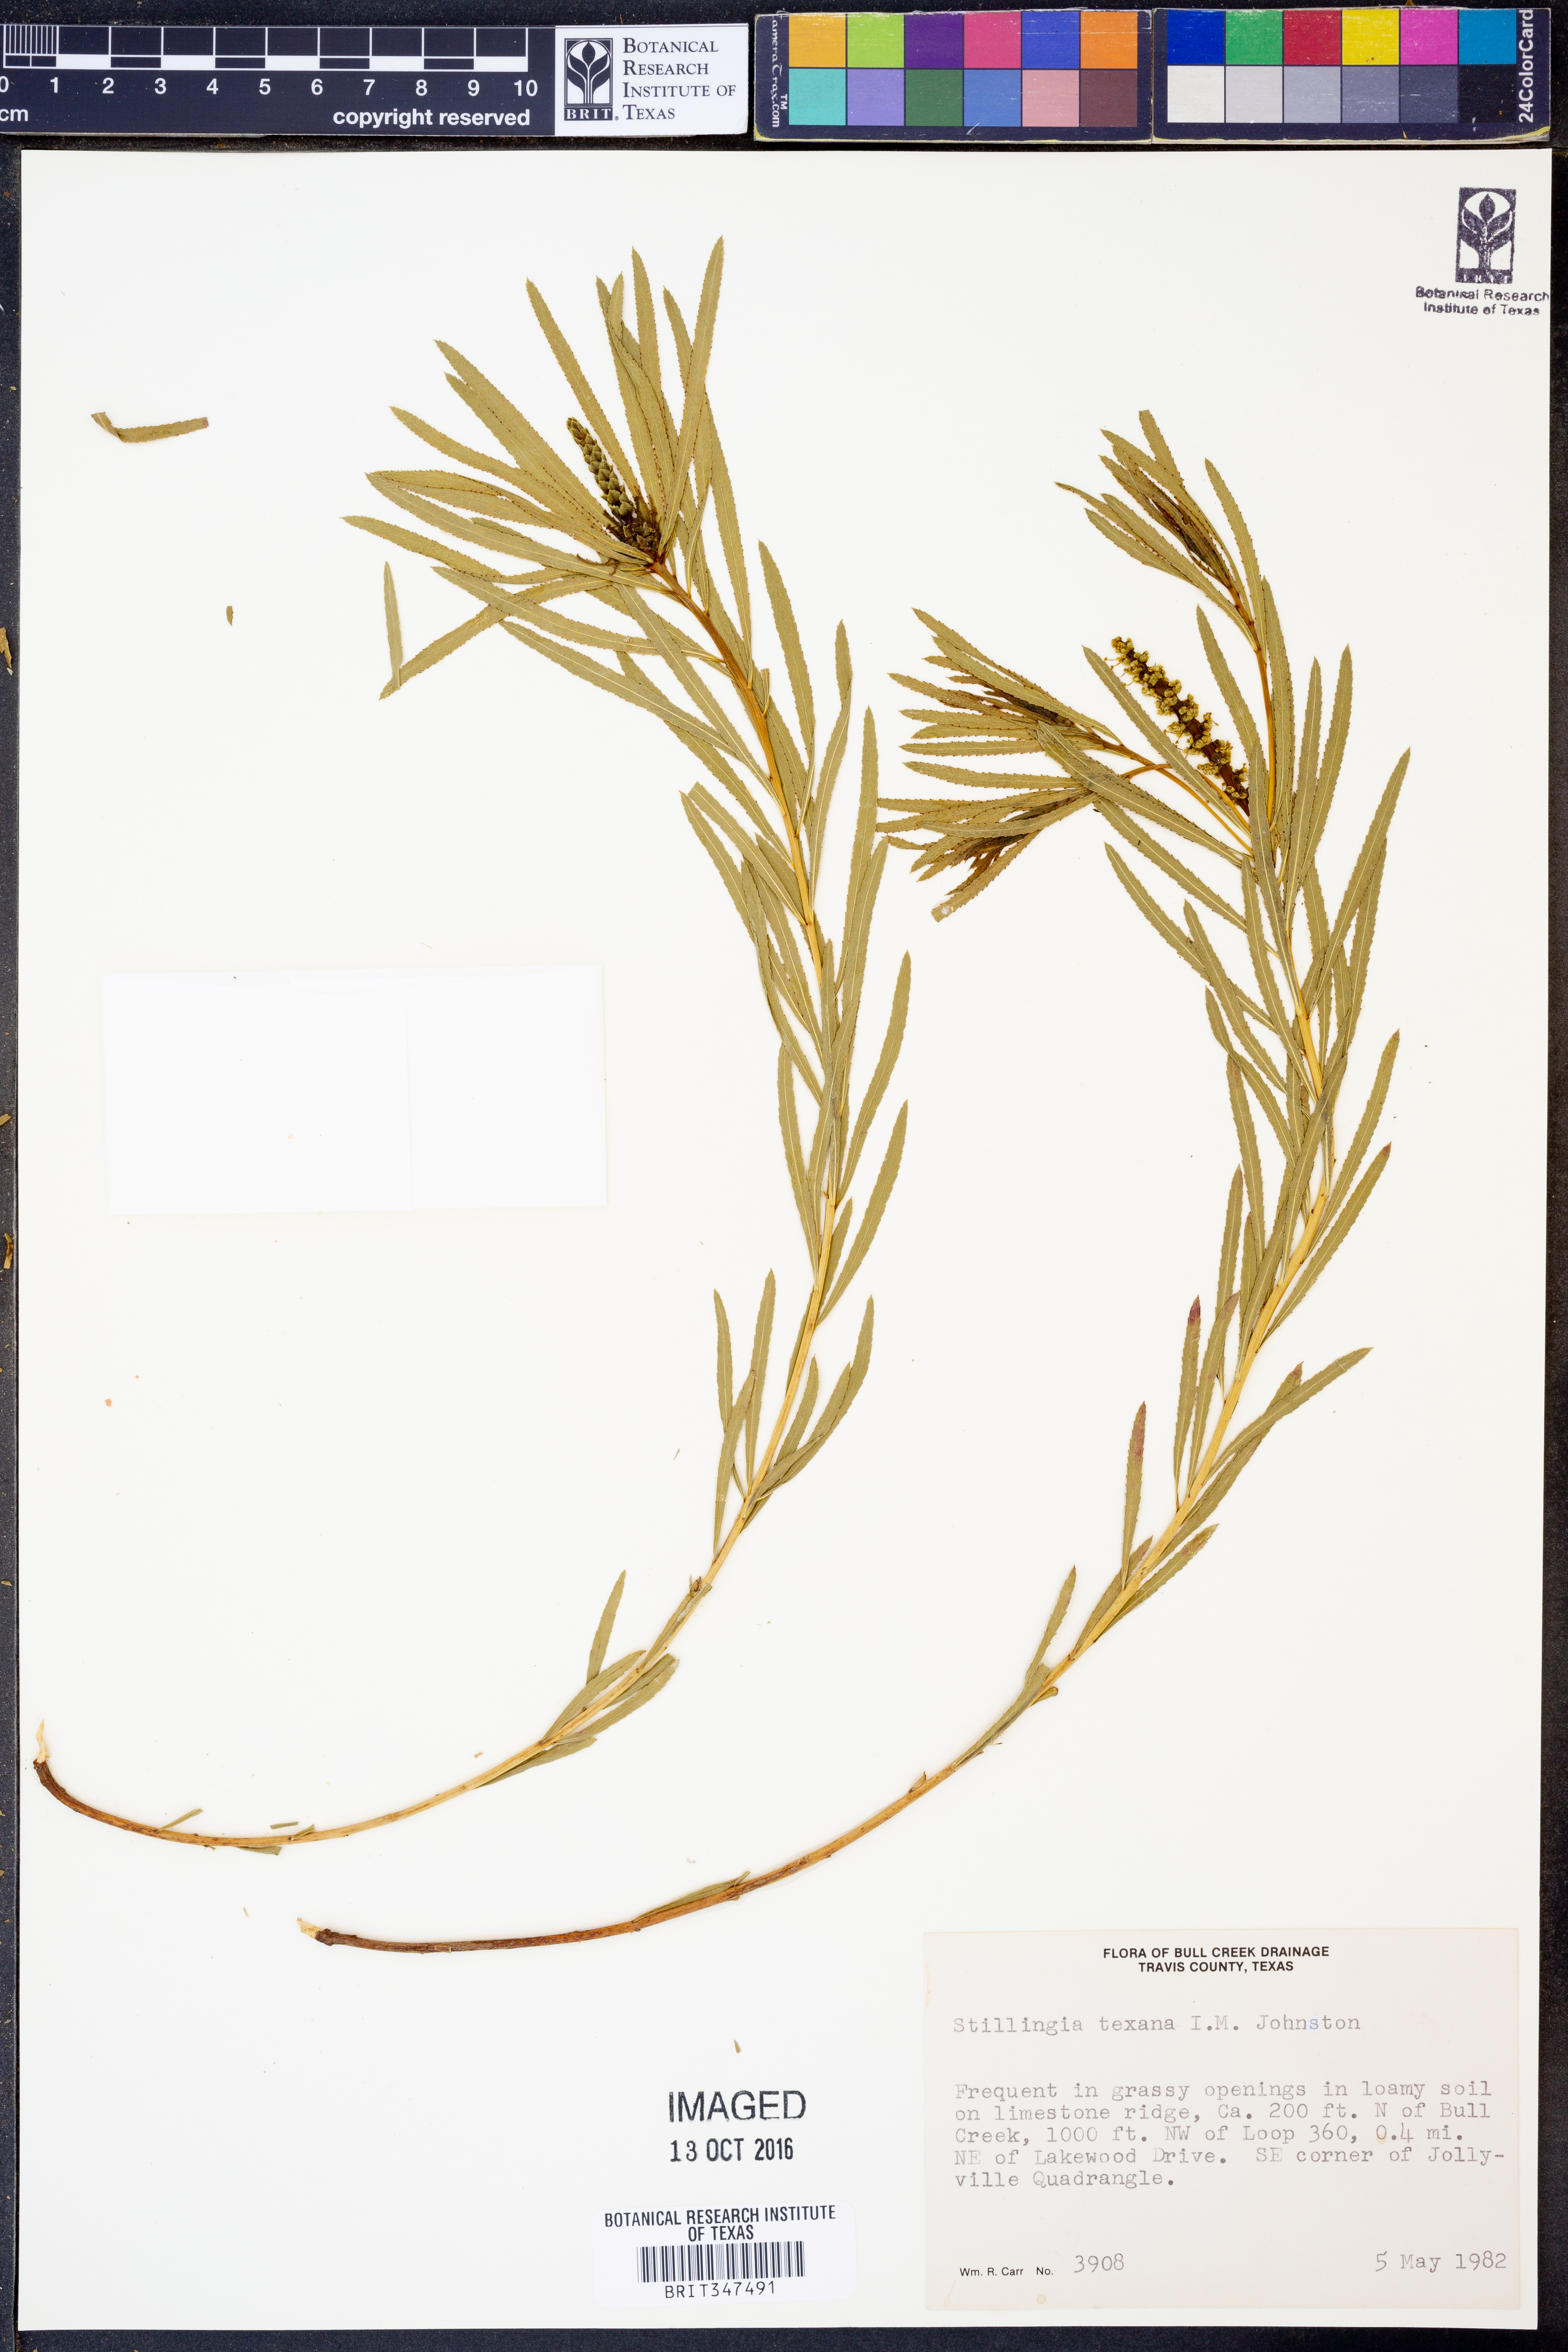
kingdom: Plantae
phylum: Tracheophyta
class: Magnoliopsida
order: Malpighiales
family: Euphorbiaceae
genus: Stillingia
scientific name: Stillingia texana
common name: Texas stillingia
